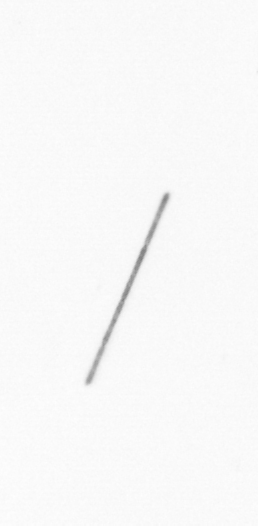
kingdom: Chromista
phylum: Ochrophyta
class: Bacillariophyceae
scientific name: Bacillariophyceae
